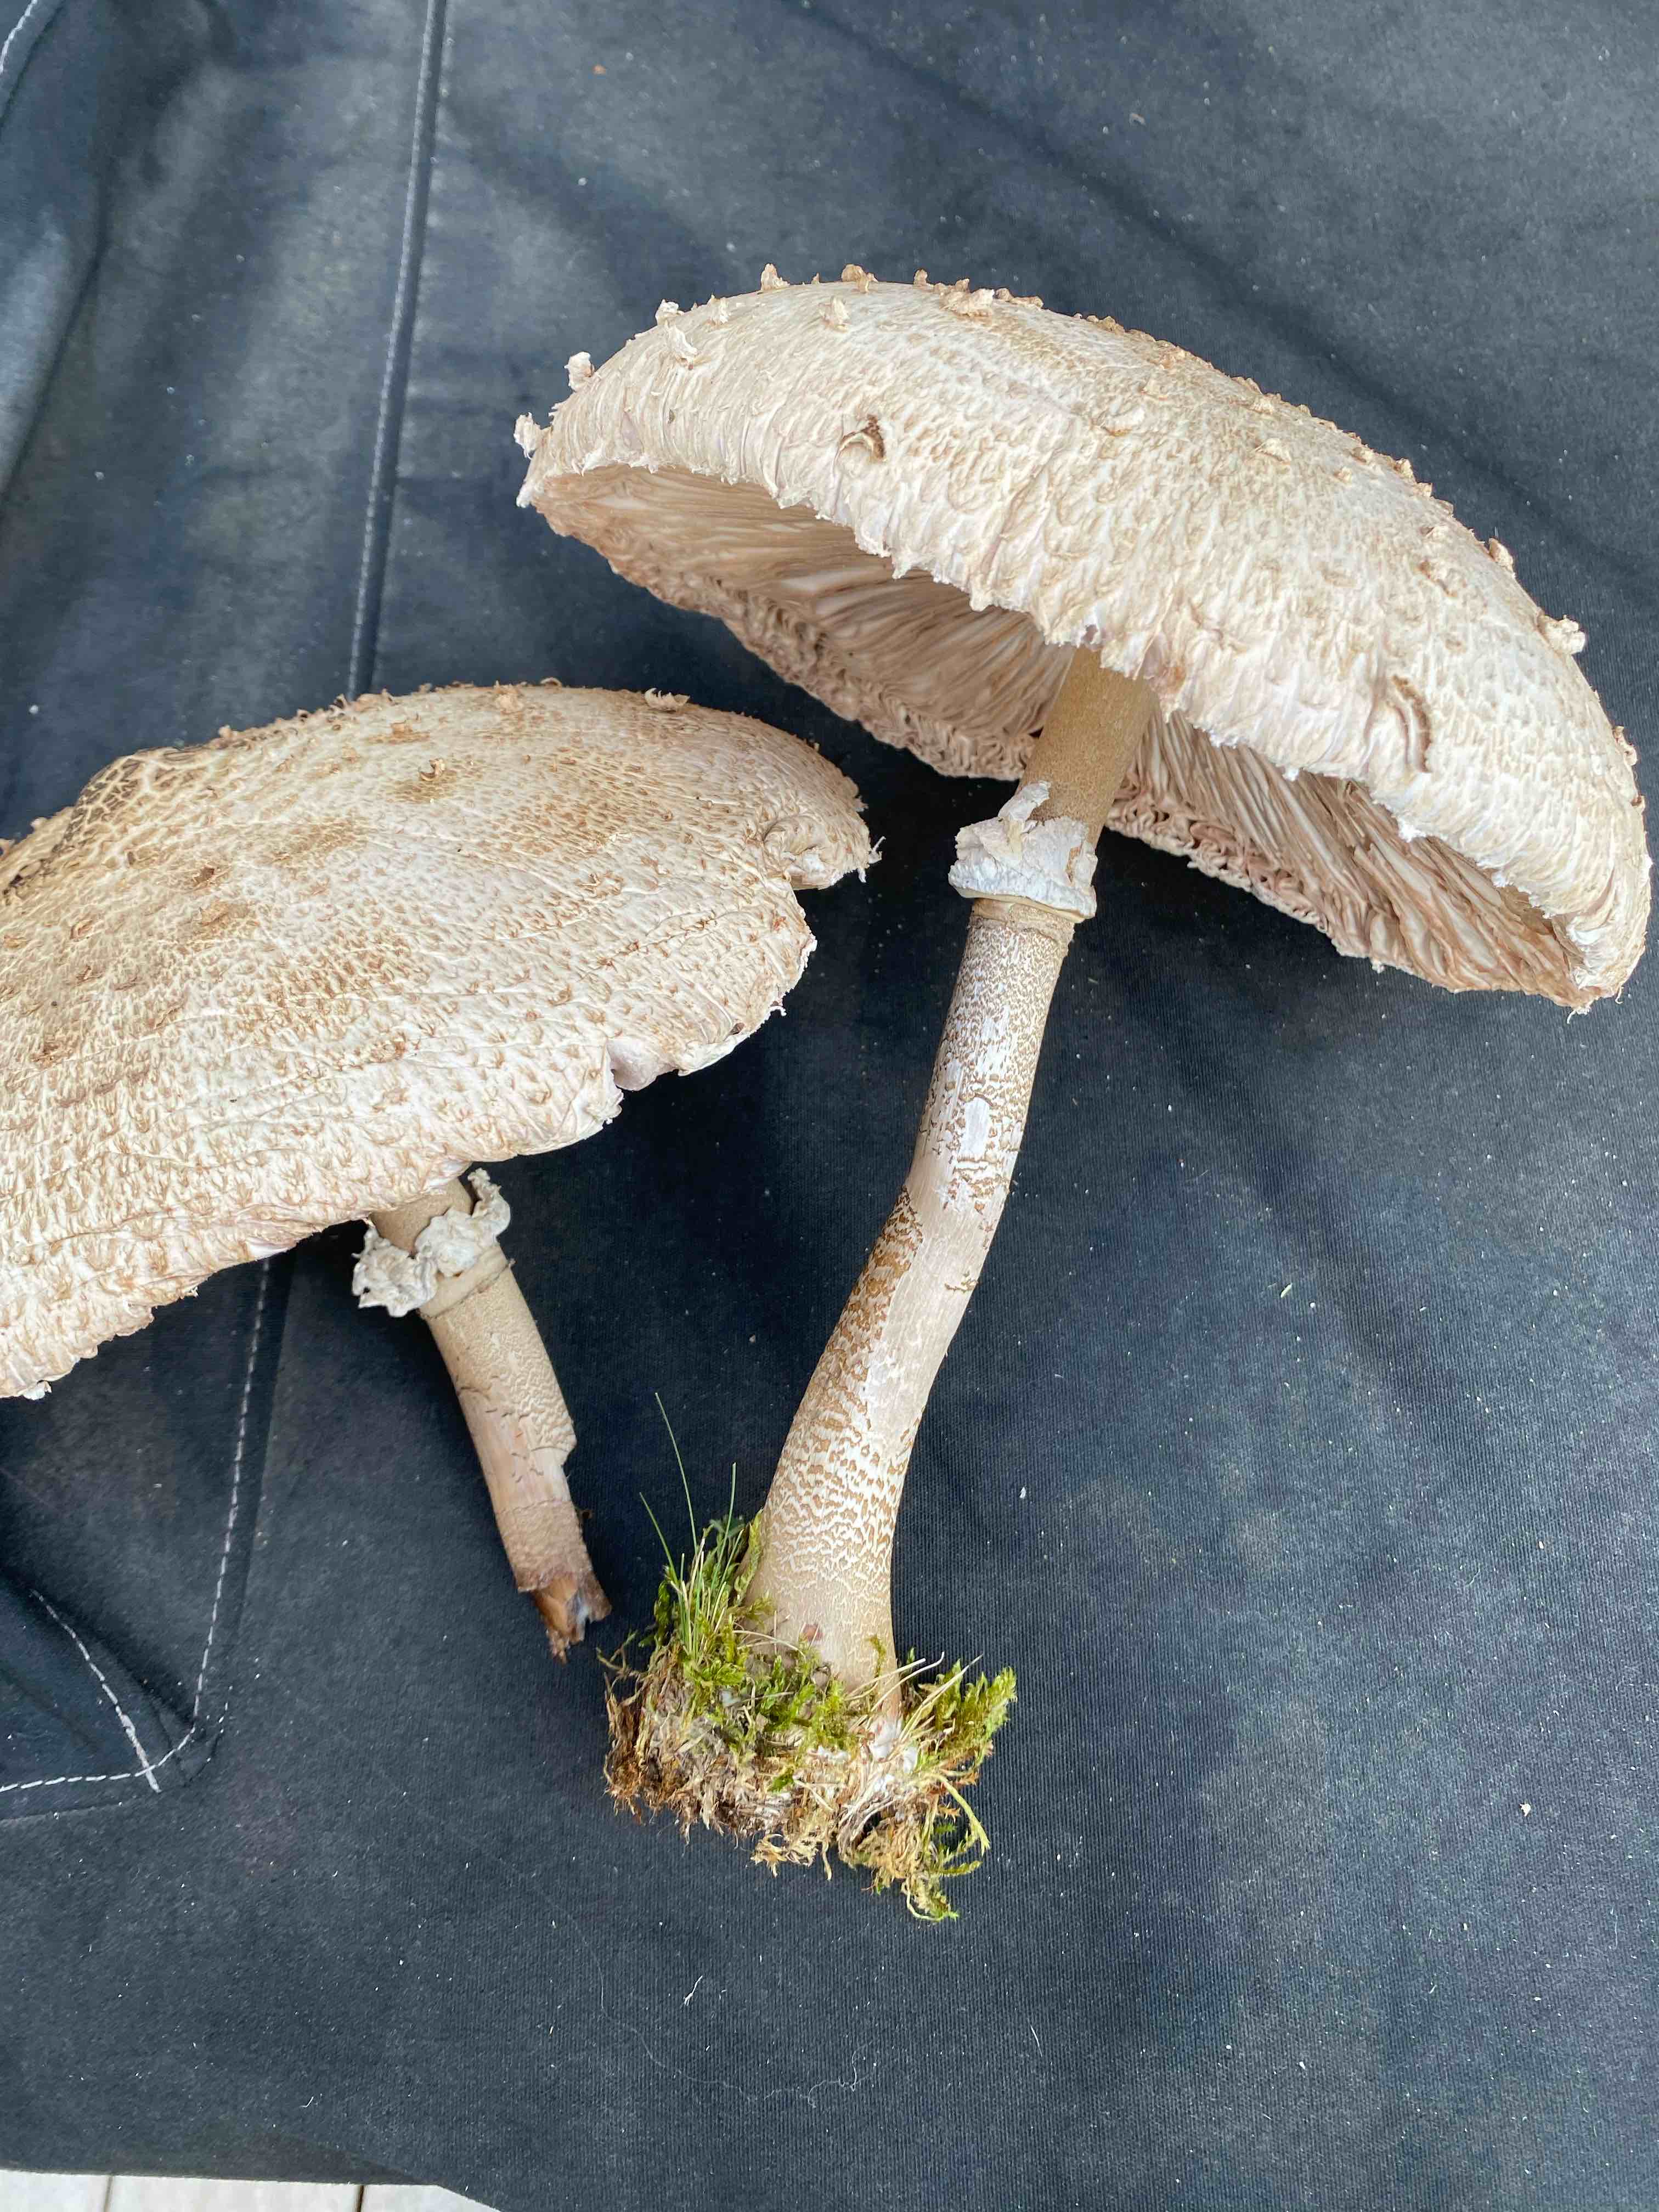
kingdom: Fungi
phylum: Basidiomycota
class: Agaricomycetes
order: Agaricales
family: Agaricaceae
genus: Macrolepiota
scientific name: Macrolepiota mastoidea
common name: puklet kæmpeparasolhat
